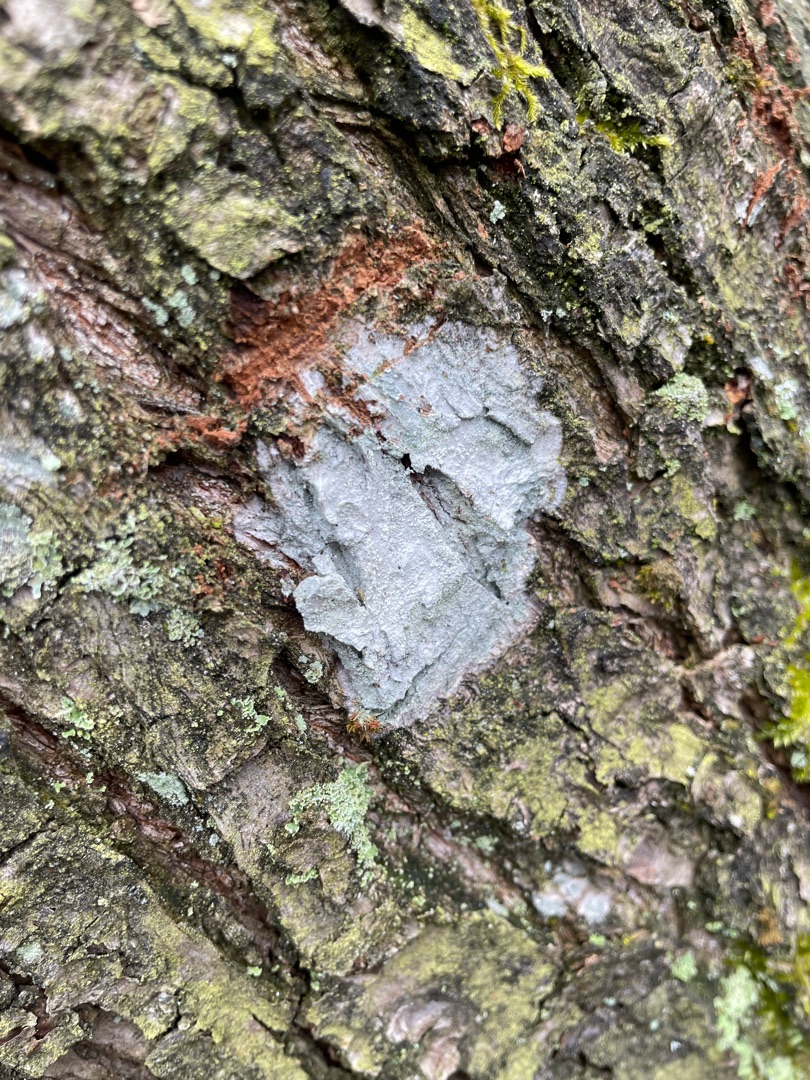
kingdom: Fungi
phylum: Ascomycota
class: Lecanoromycetes
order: Ostropales
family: Phlyctidaceae
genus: Phlyctis
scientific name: Phlyctis argena
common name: Almindelig sølvlav
